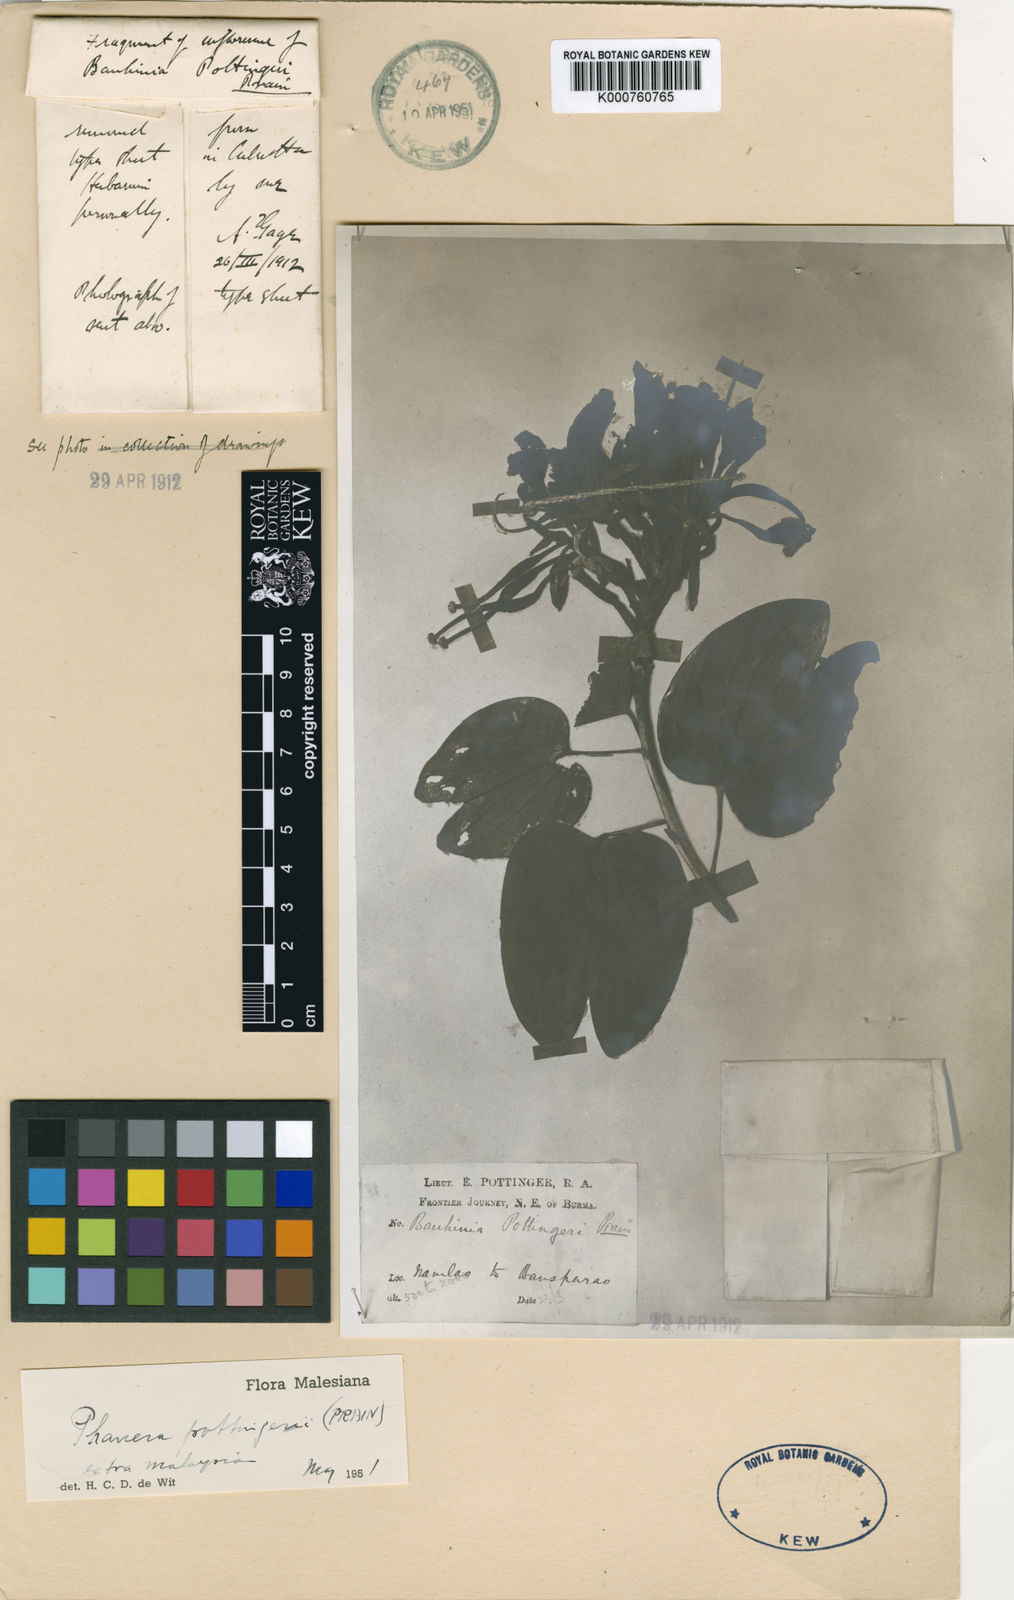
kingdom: Plantae
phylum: Tracheophyta
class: Magnoliopsida
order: Fabales
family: Fabaceae
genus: Phanera
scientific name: Phanera pottingeri
